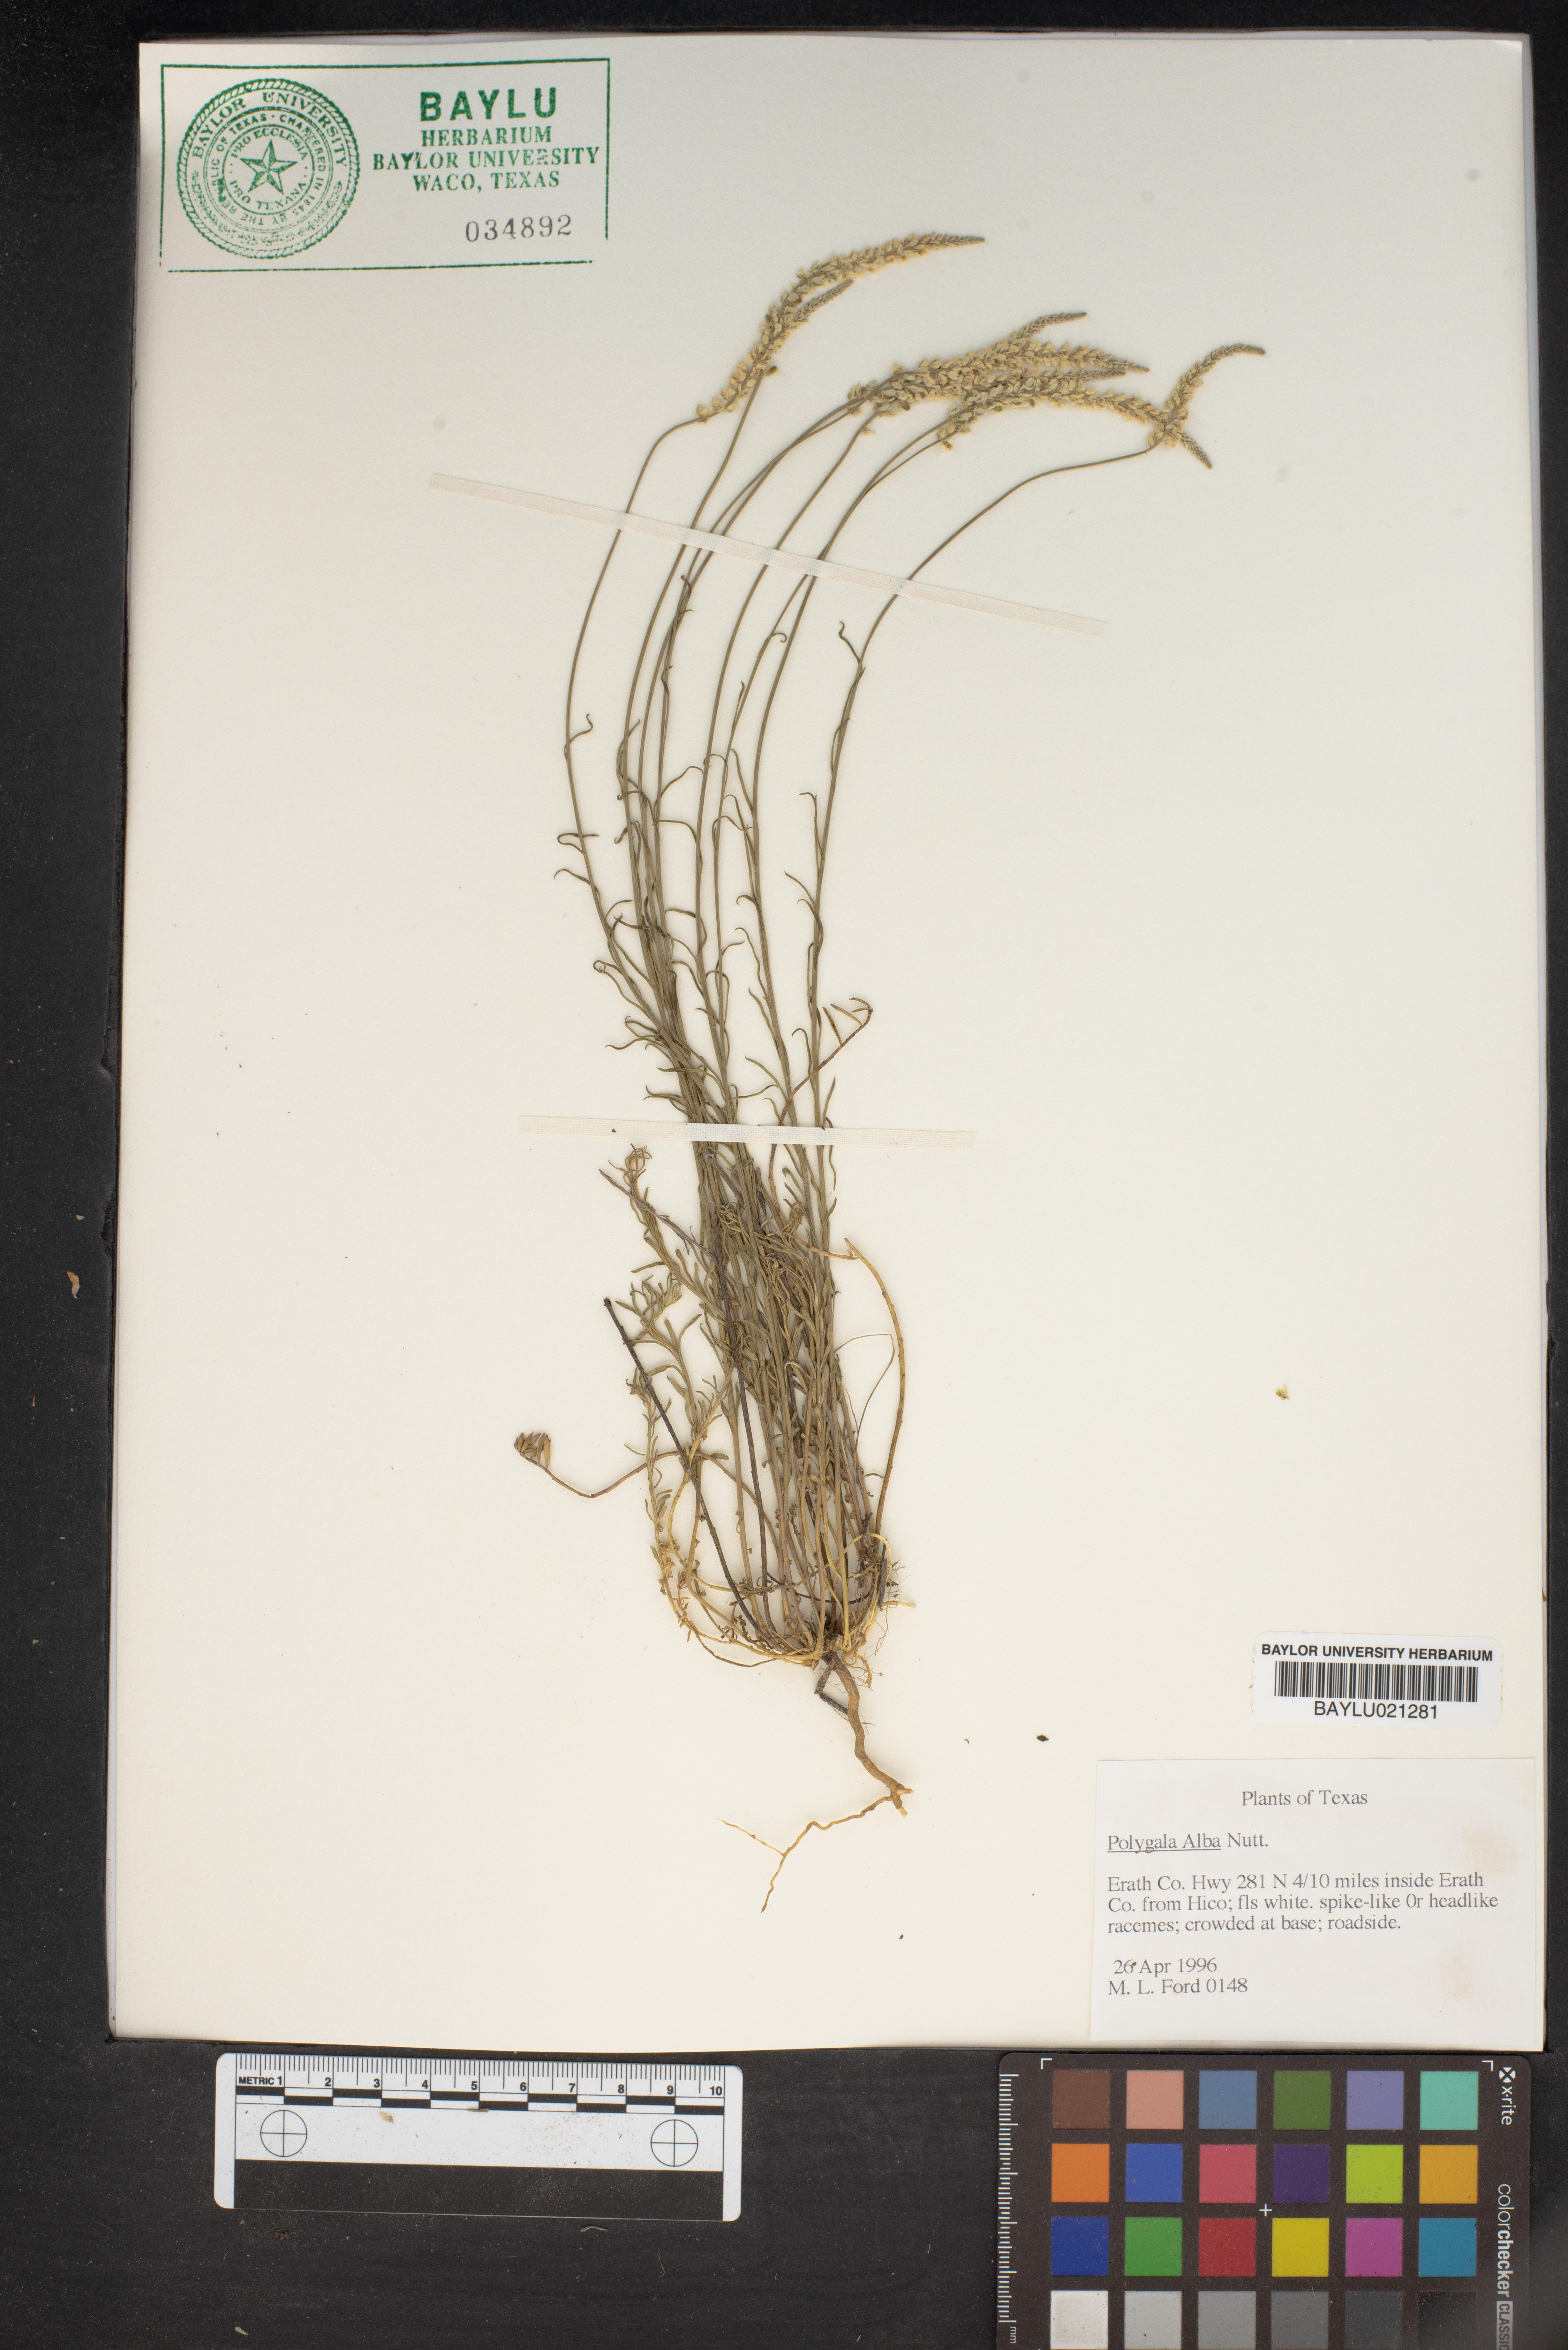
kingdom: Plantae
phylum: Tracheophyta
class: Magnoliopsida
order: Fabales
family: Polygalaceae
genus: Polygala
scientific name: Polygala alba
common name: White milkwort
